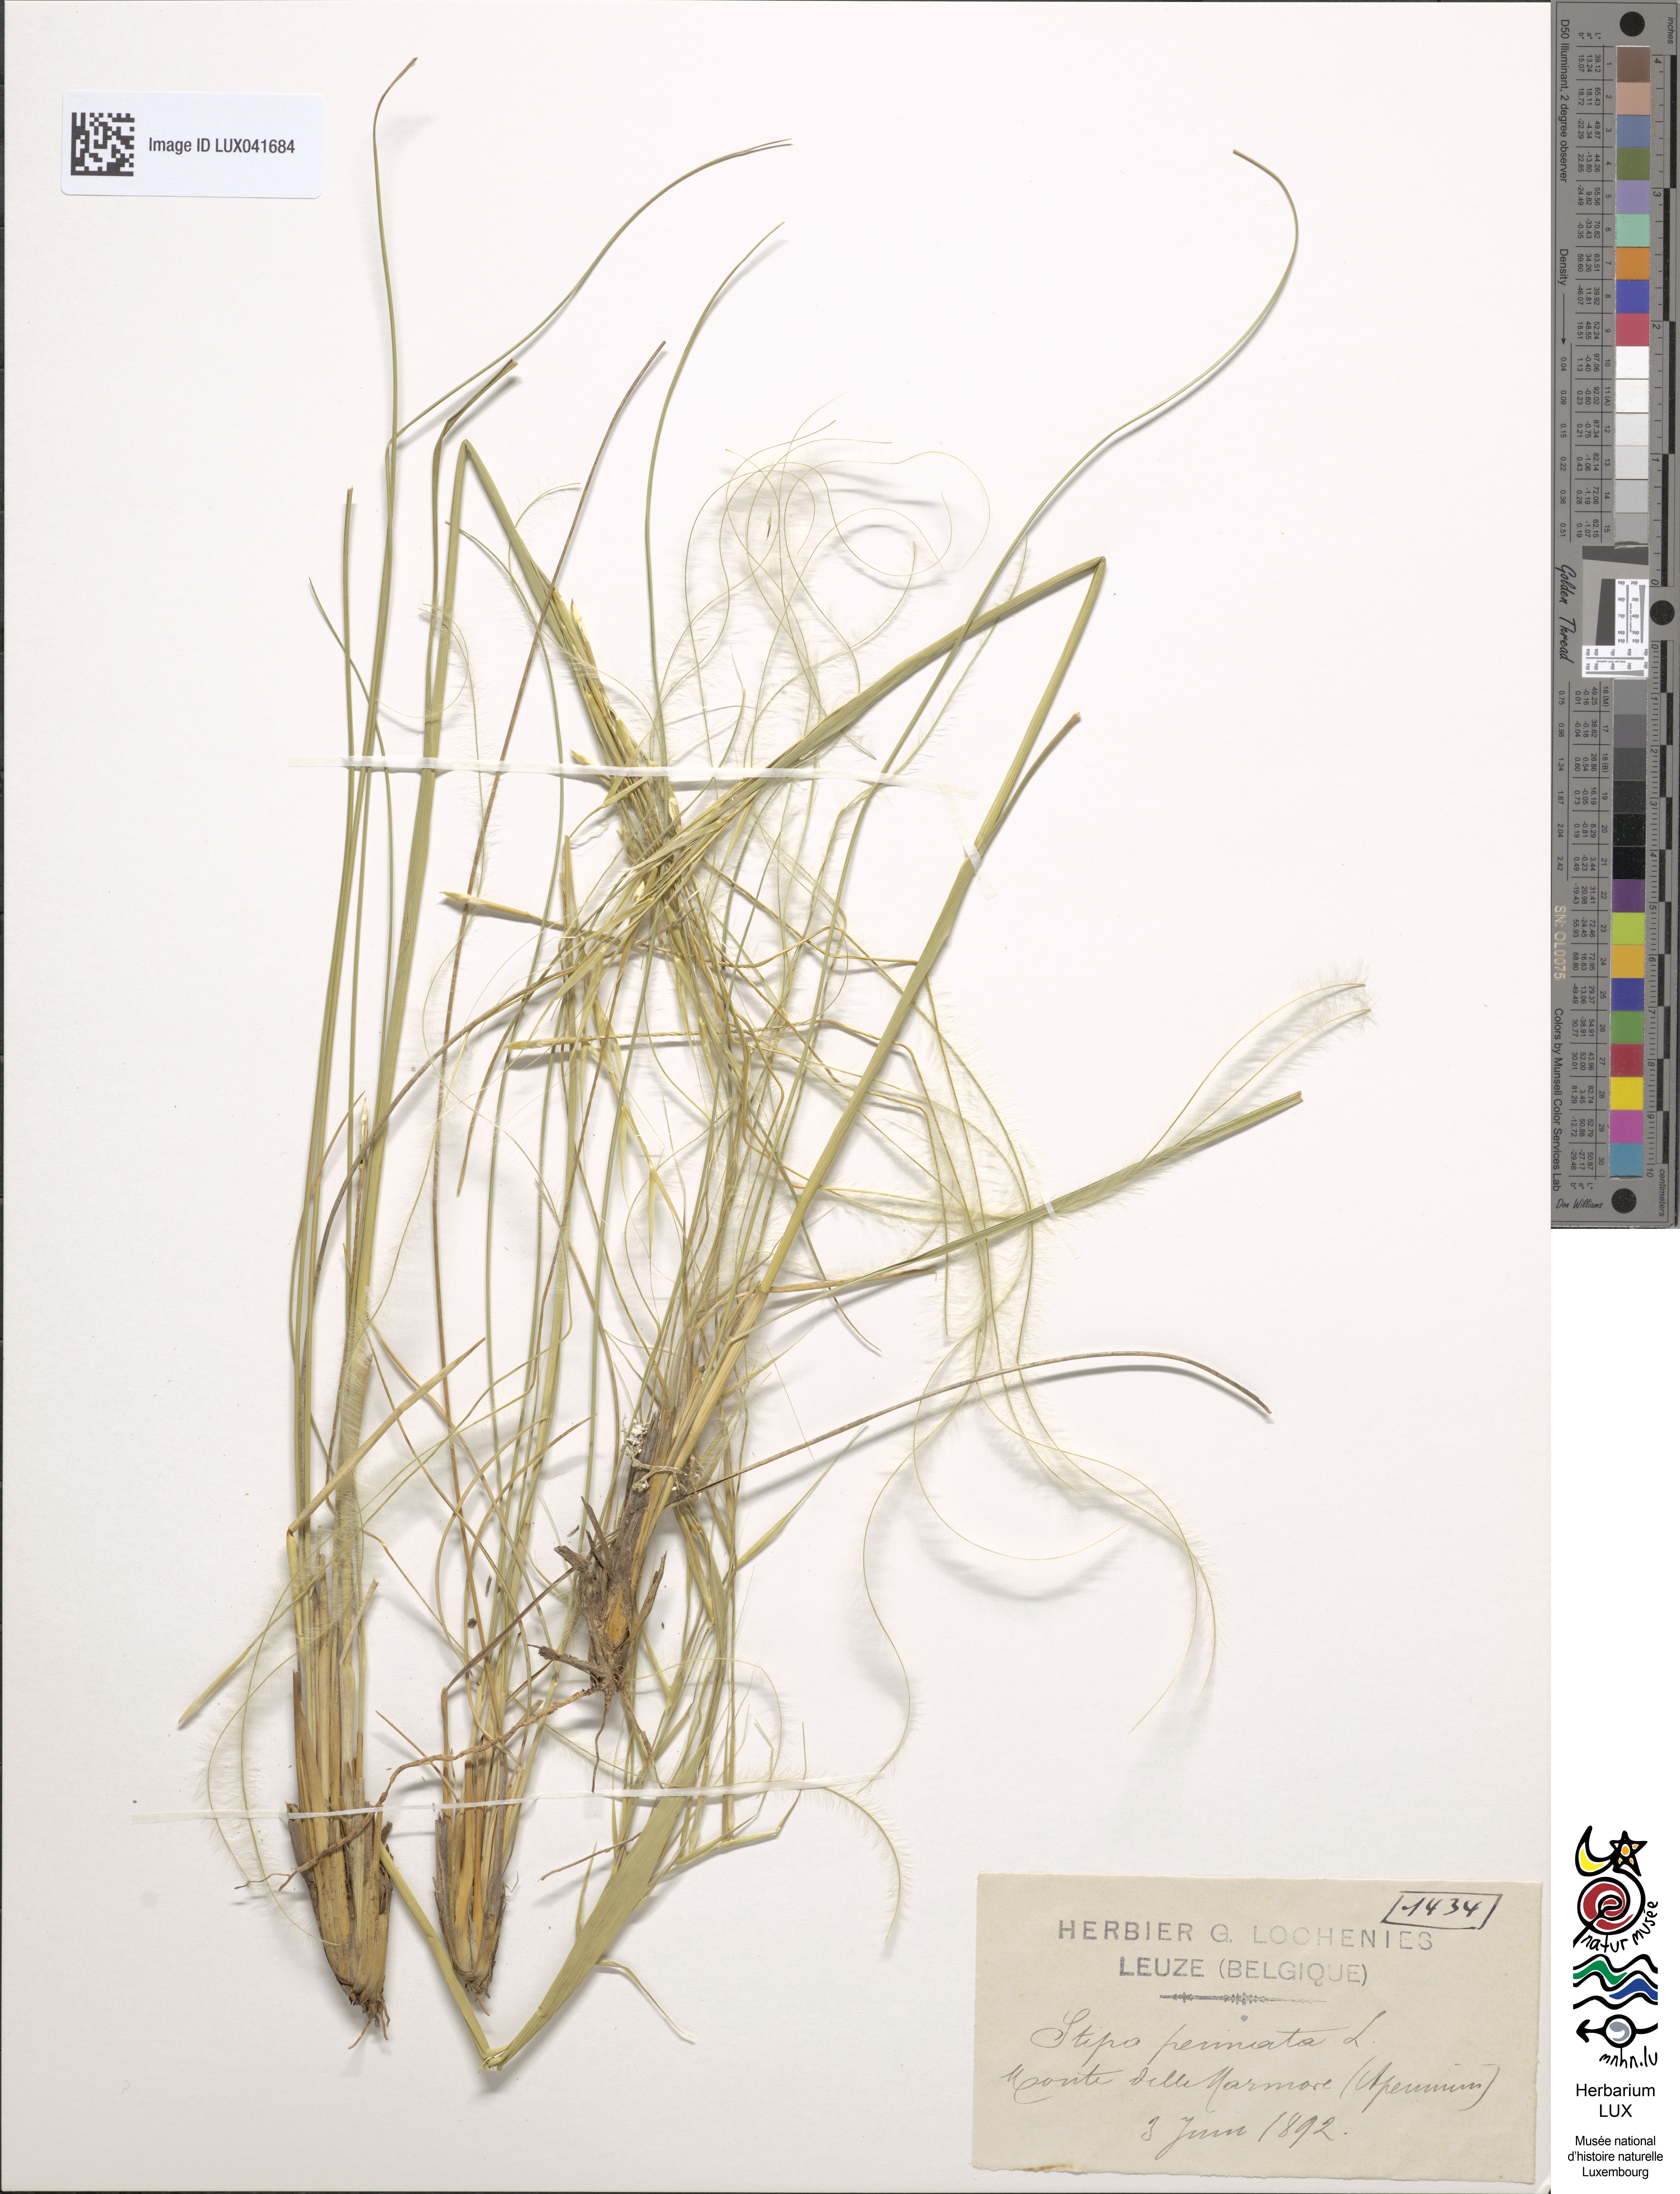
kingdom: Plantae
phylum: Tracheophyta
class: Liliopsida
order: Poales
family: Poaceae
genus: Stipa
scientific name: Stipa pennata
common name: European feather grass
